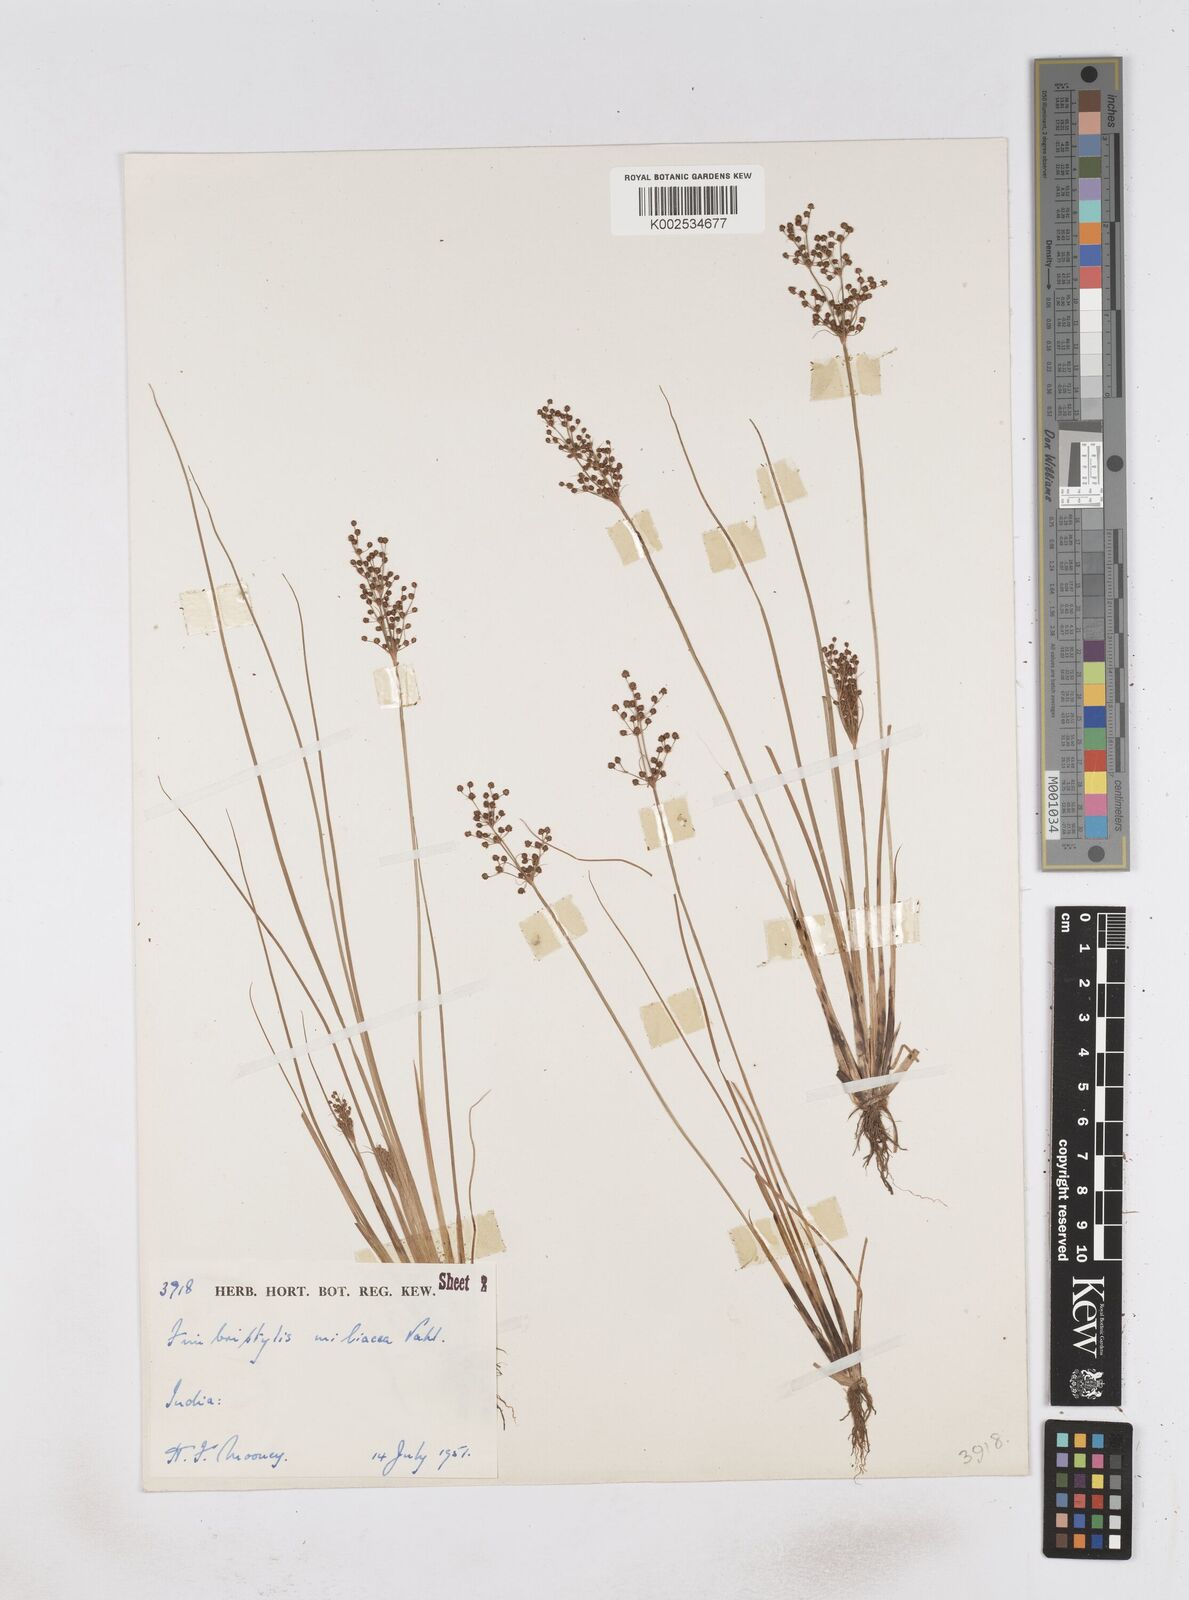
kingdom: Plantae
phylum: Tracheophyta
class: Liliopsida
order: Poales
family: Cyperaceae
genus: Fimbristylis
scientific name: Fimbristylis littoralis
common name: Fimbry
